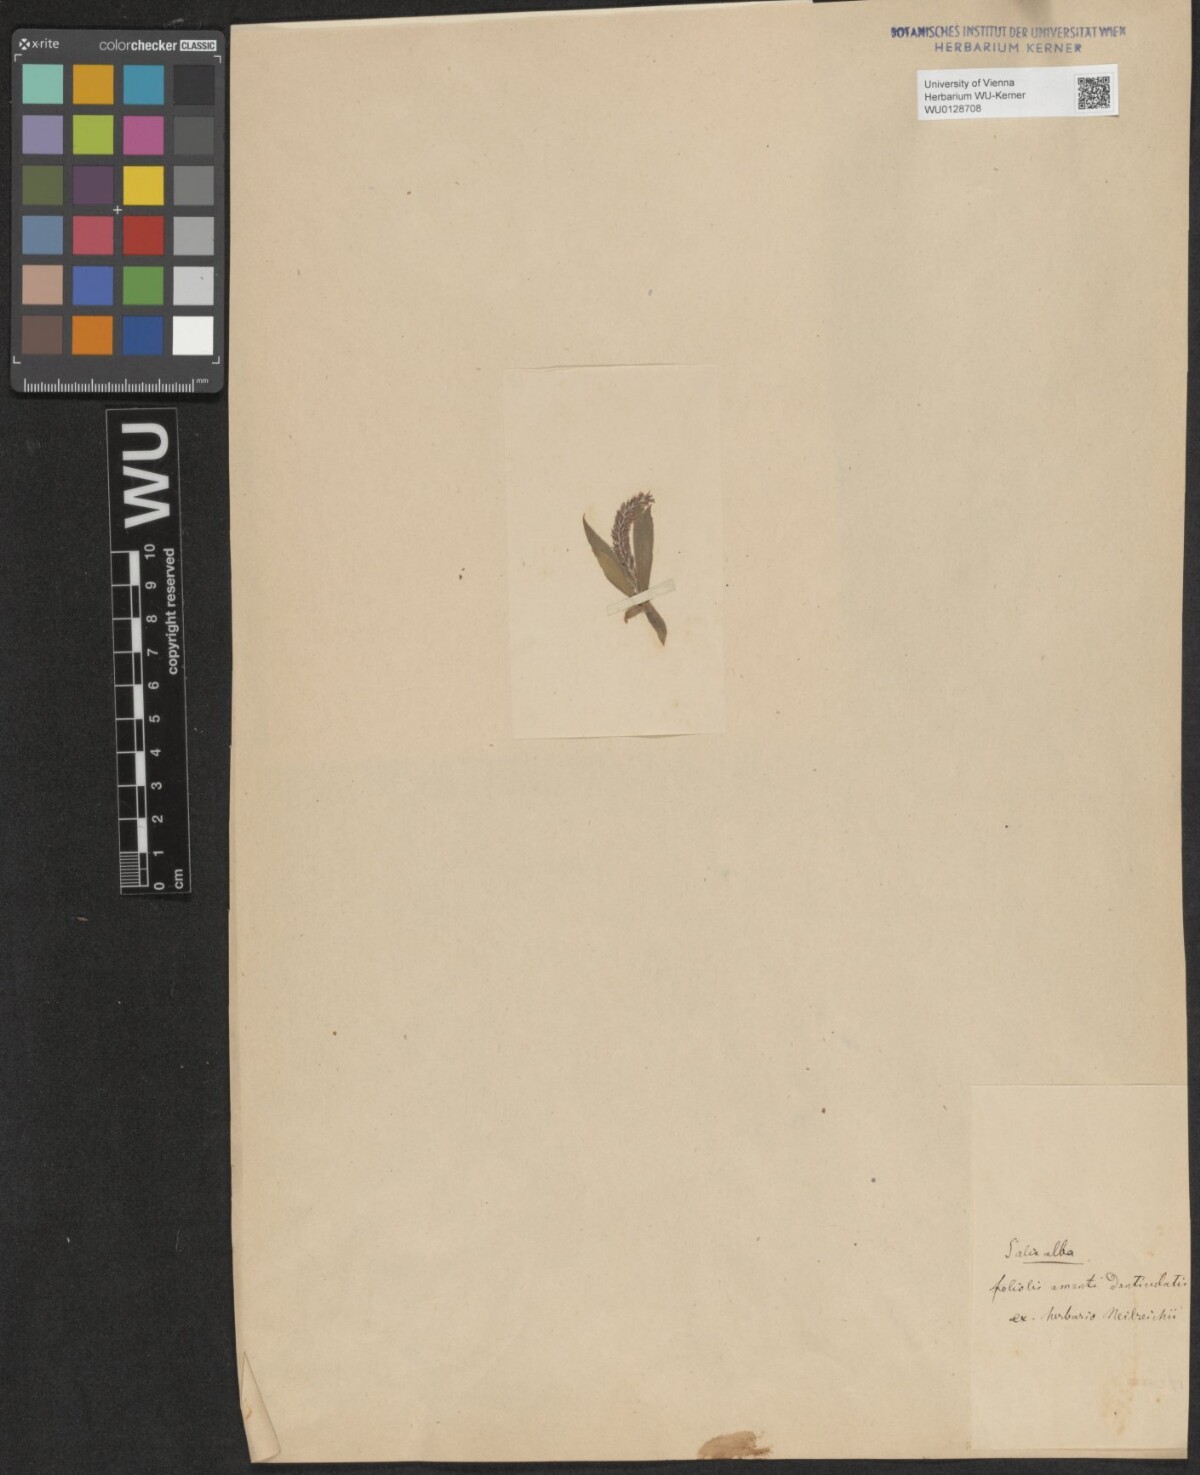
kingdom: Plantae
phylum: Tracheophyta
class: Magnoliopsida
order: Malpighiales
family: Salicaceae
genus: Salix
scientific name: Salix alba
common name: White willow
